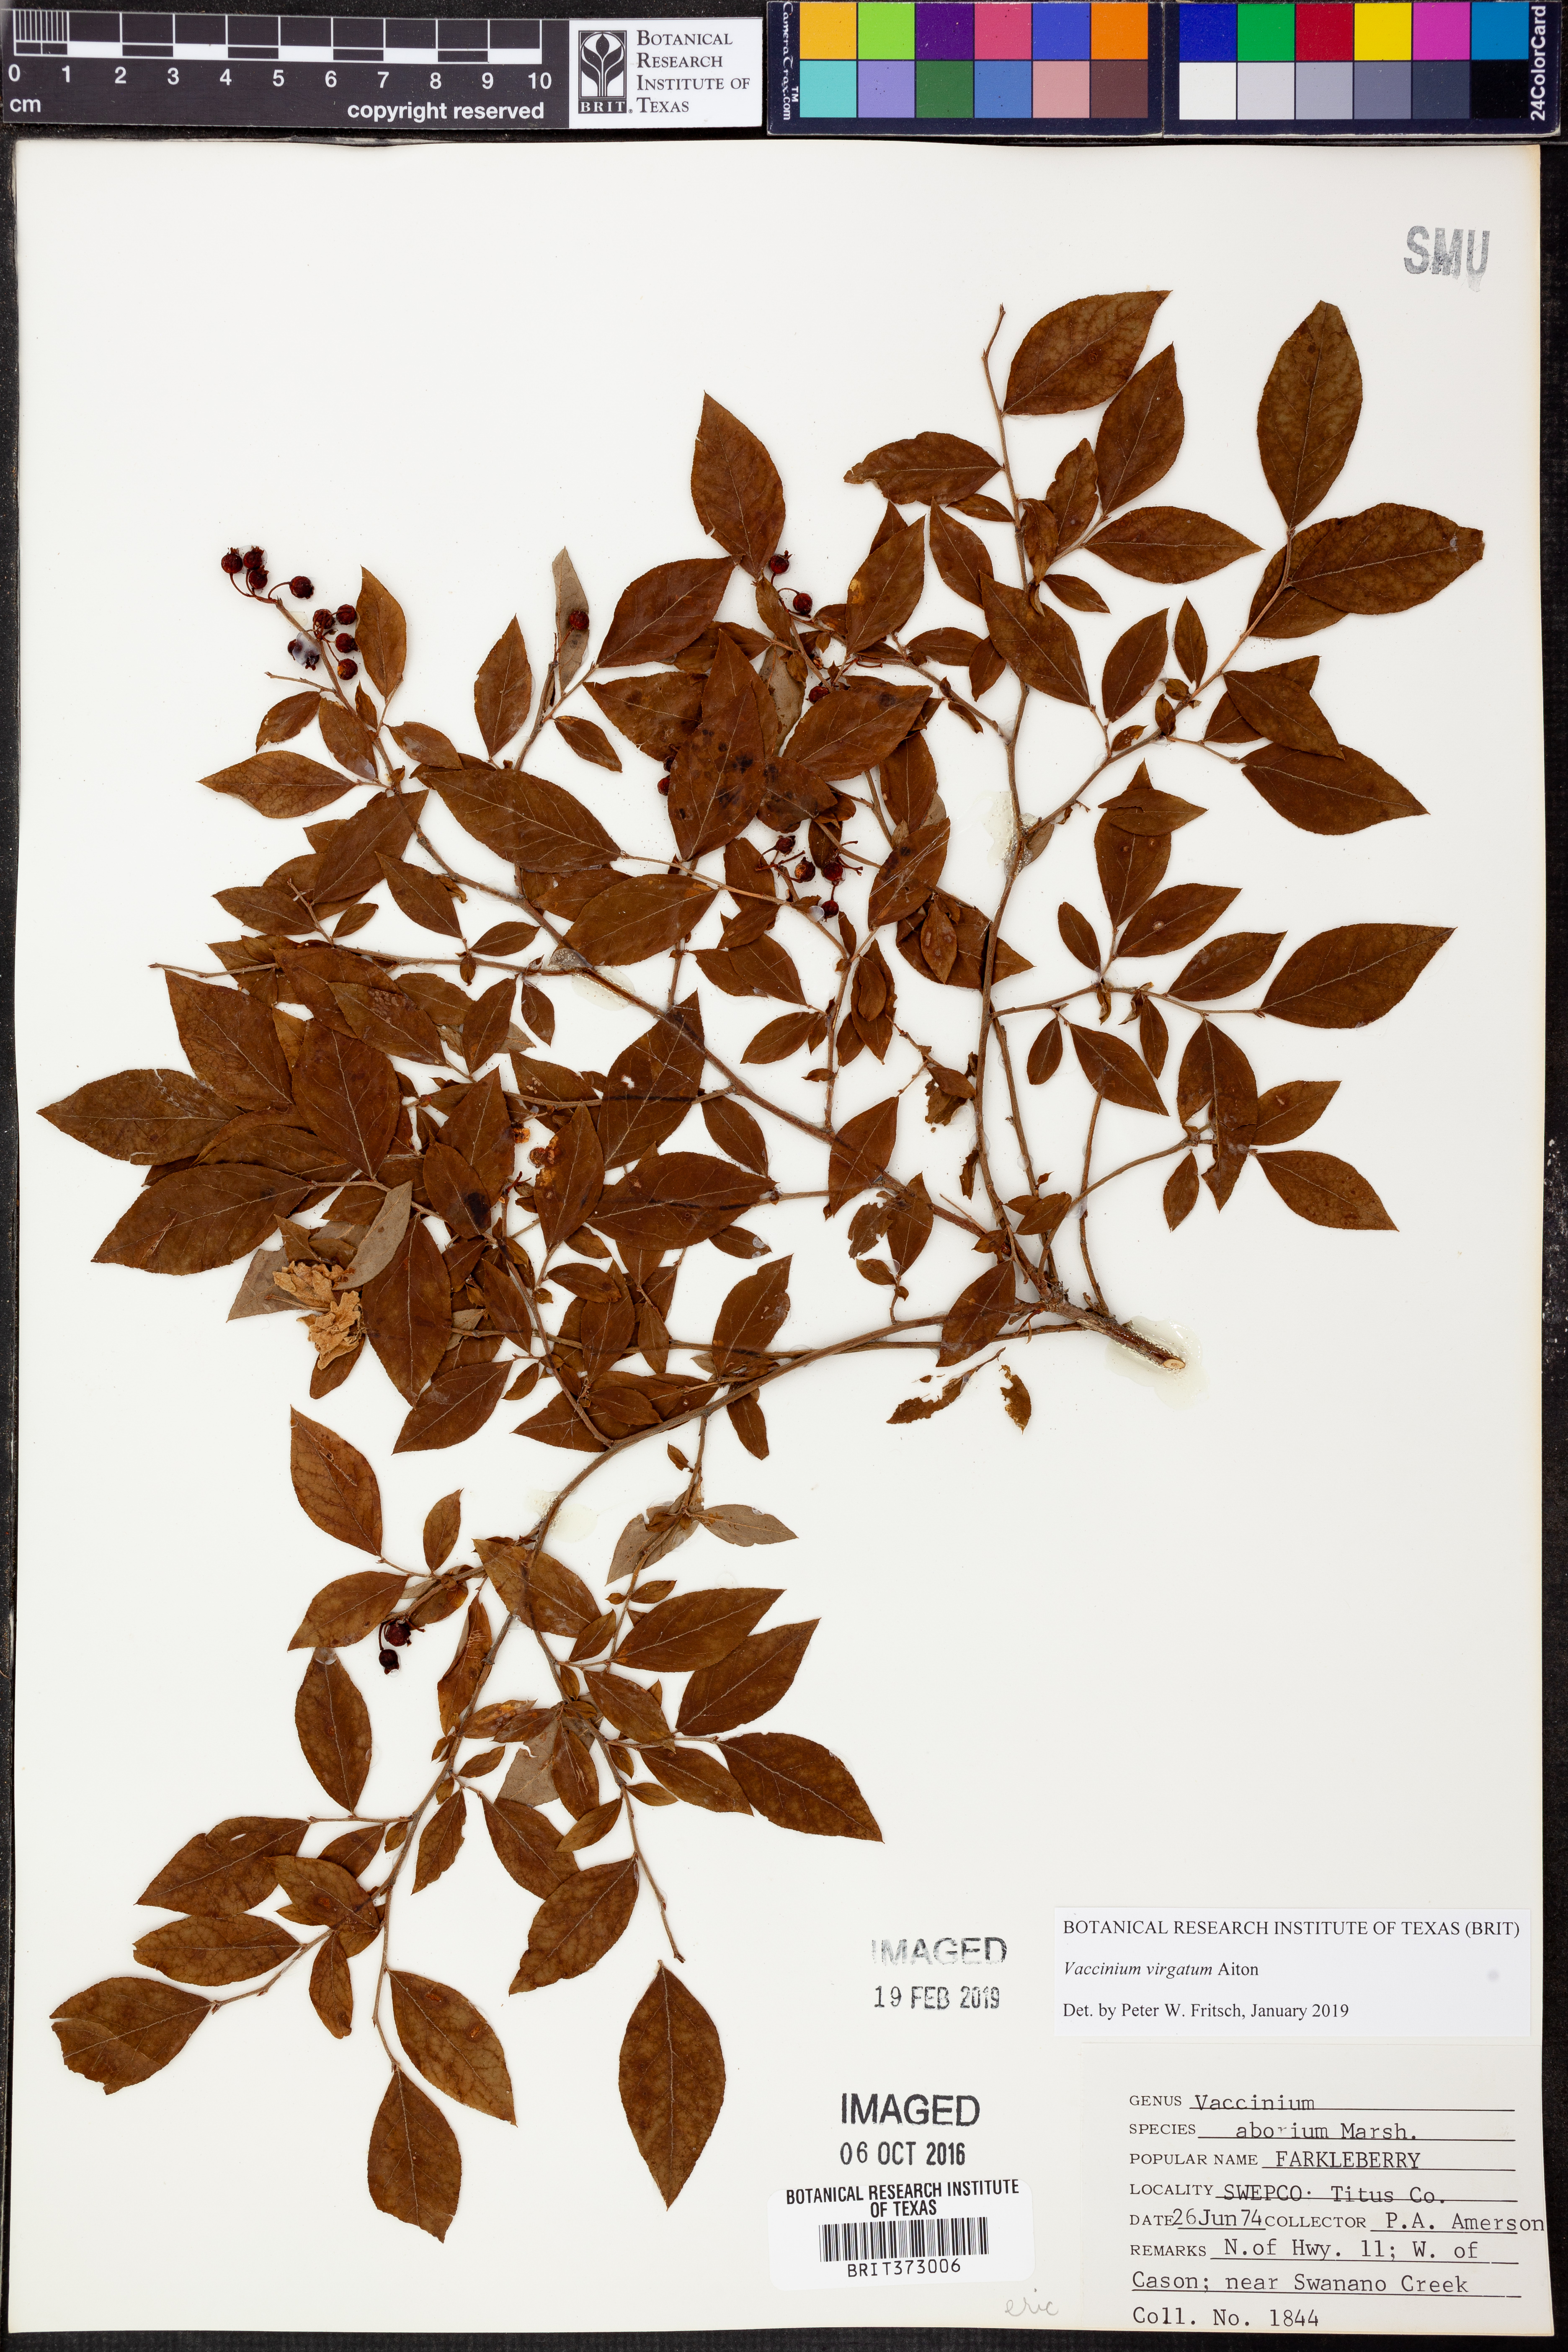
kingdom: Plantae
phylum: Tracheophyta
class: Magnoliopsida
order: Ericales
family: Ericaceae
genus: Vaccinium
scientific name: Vaccinium arboreum
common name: Farkleberry
